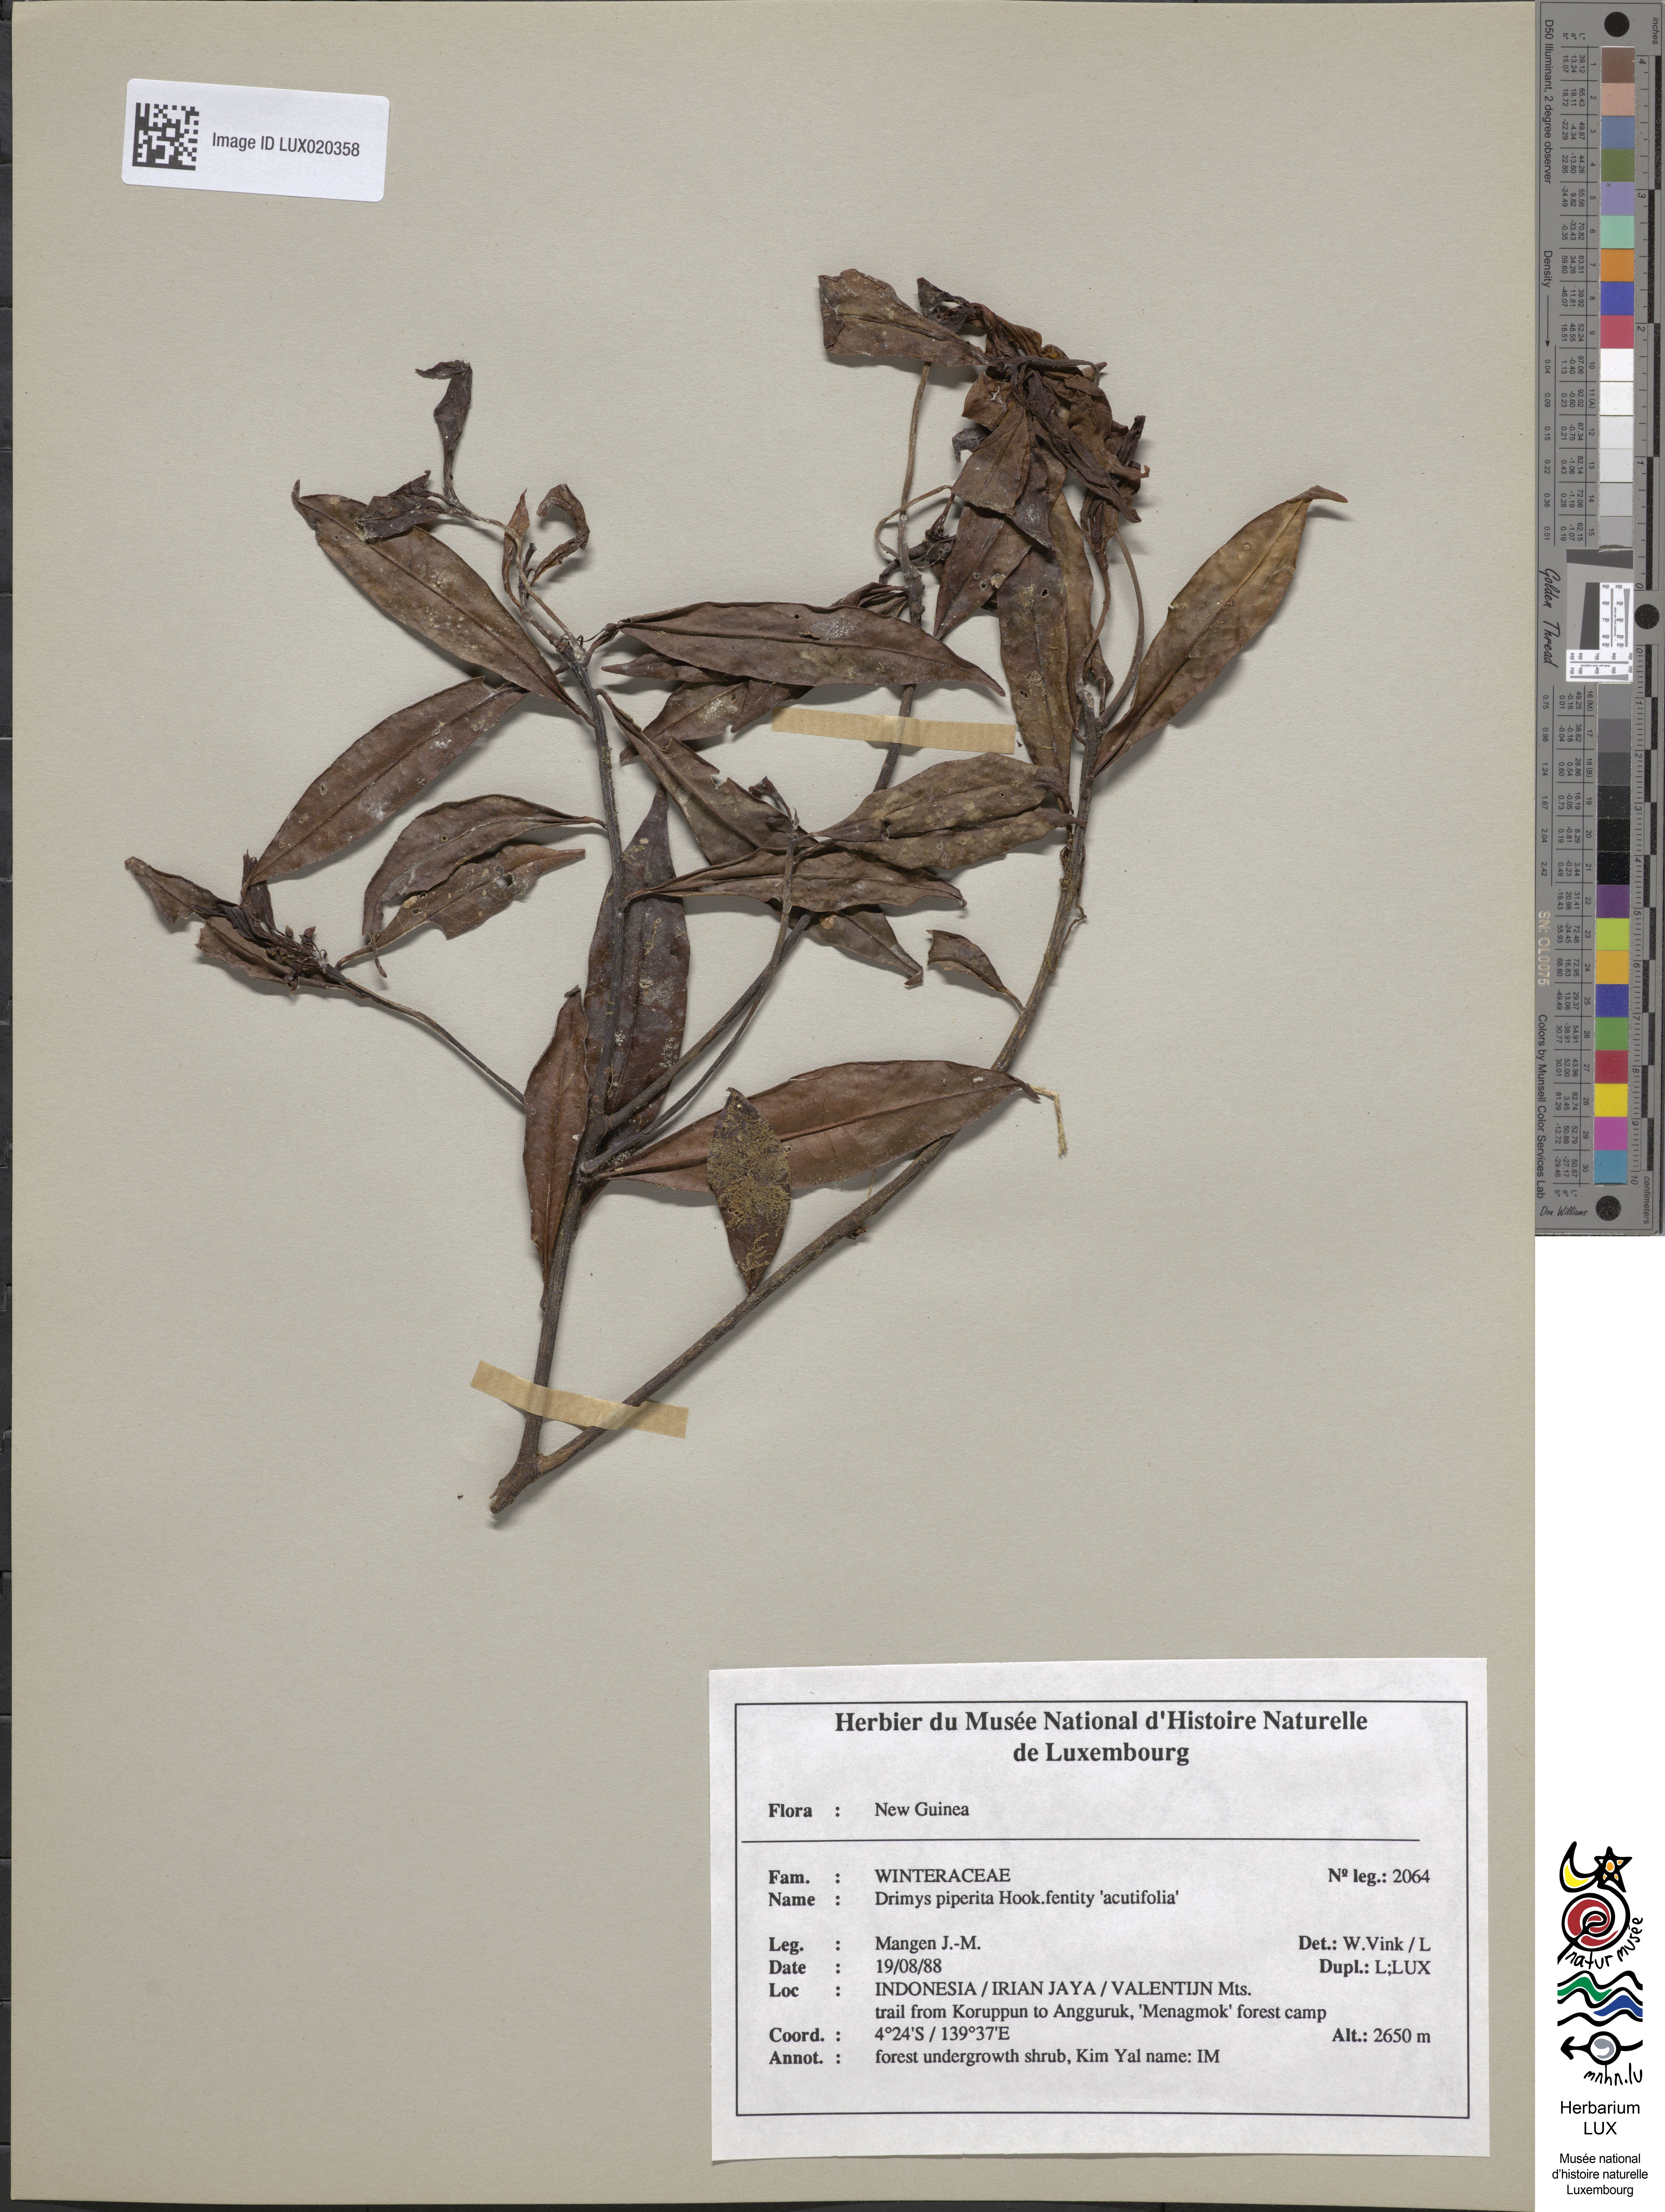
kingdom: Plantae
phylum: Tracheophyta
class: Magnoliopsida
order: Canellales
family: Winteraceae
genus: Drimys
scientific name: Drimys piperita
